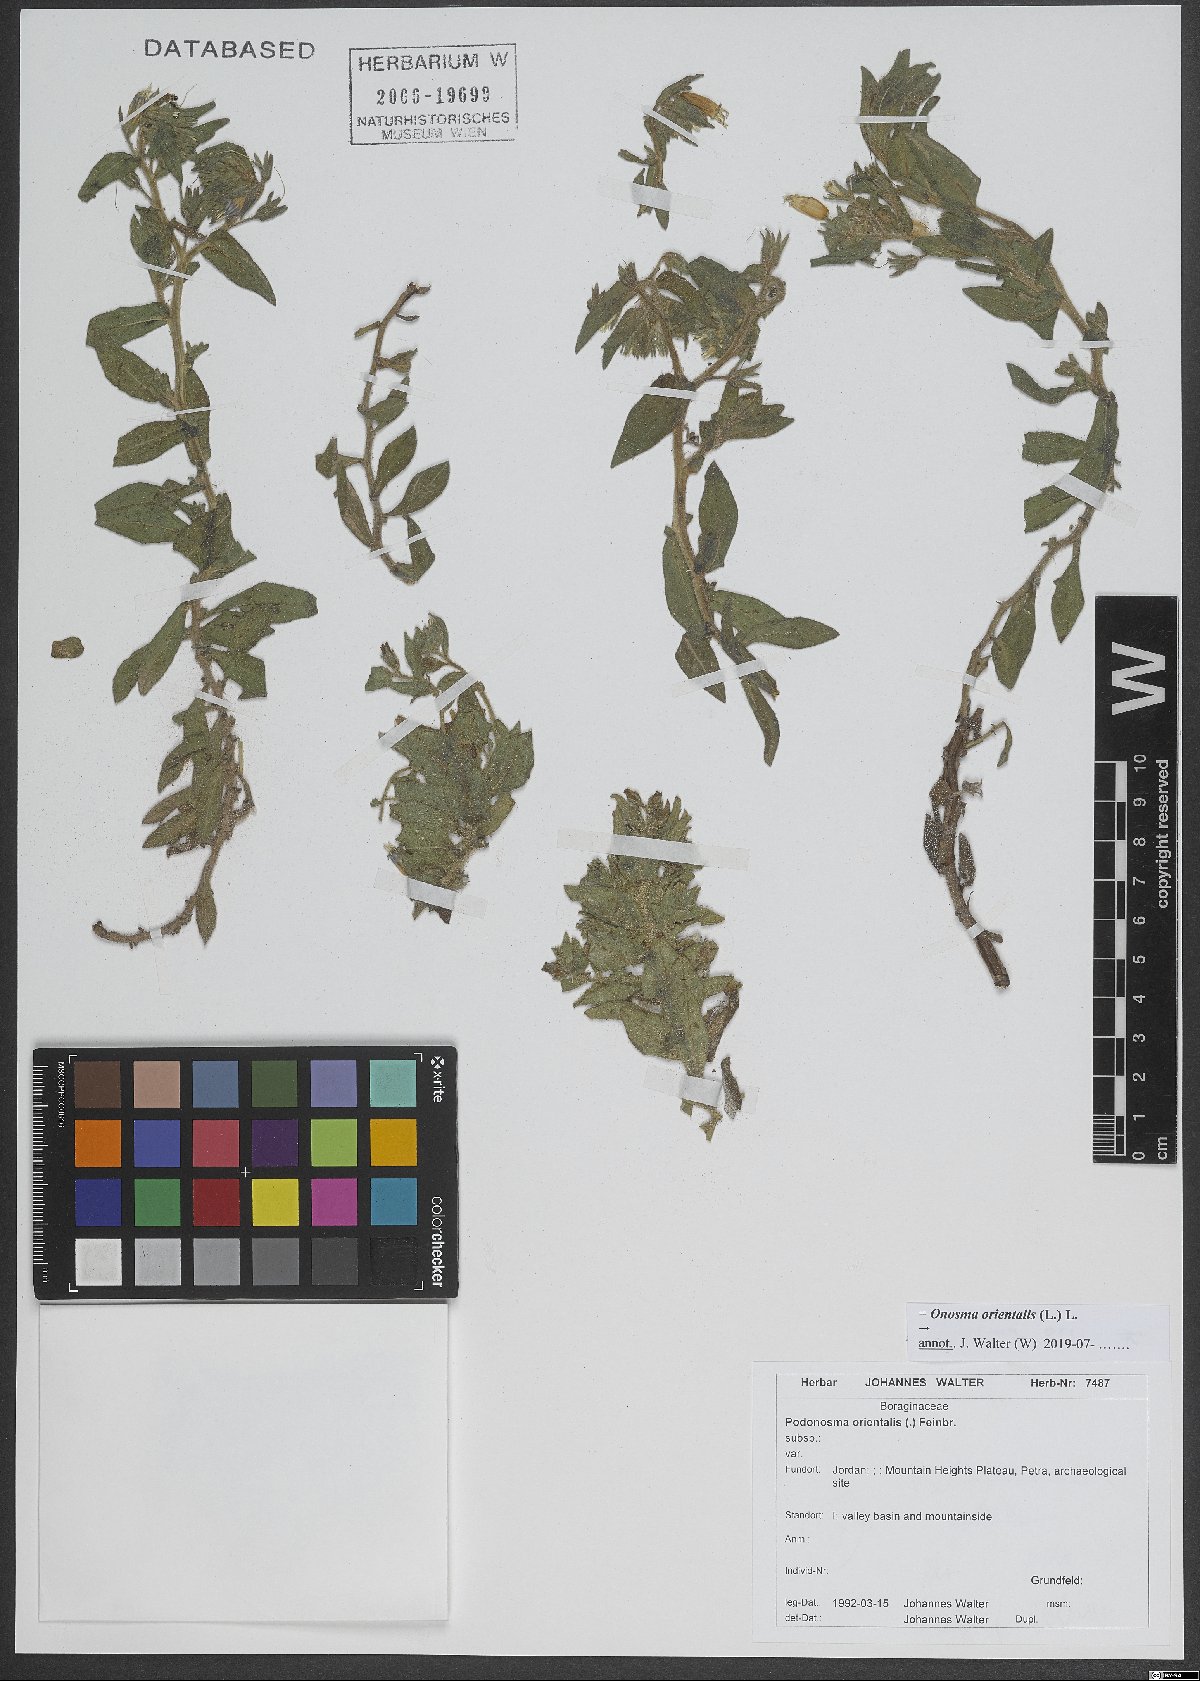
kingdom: Plantae
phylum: Tracheophyta
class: Magnoliopsida
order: Boraginales
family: Boraginaceae
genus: Podonosma
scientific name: Podonosma orientalis
